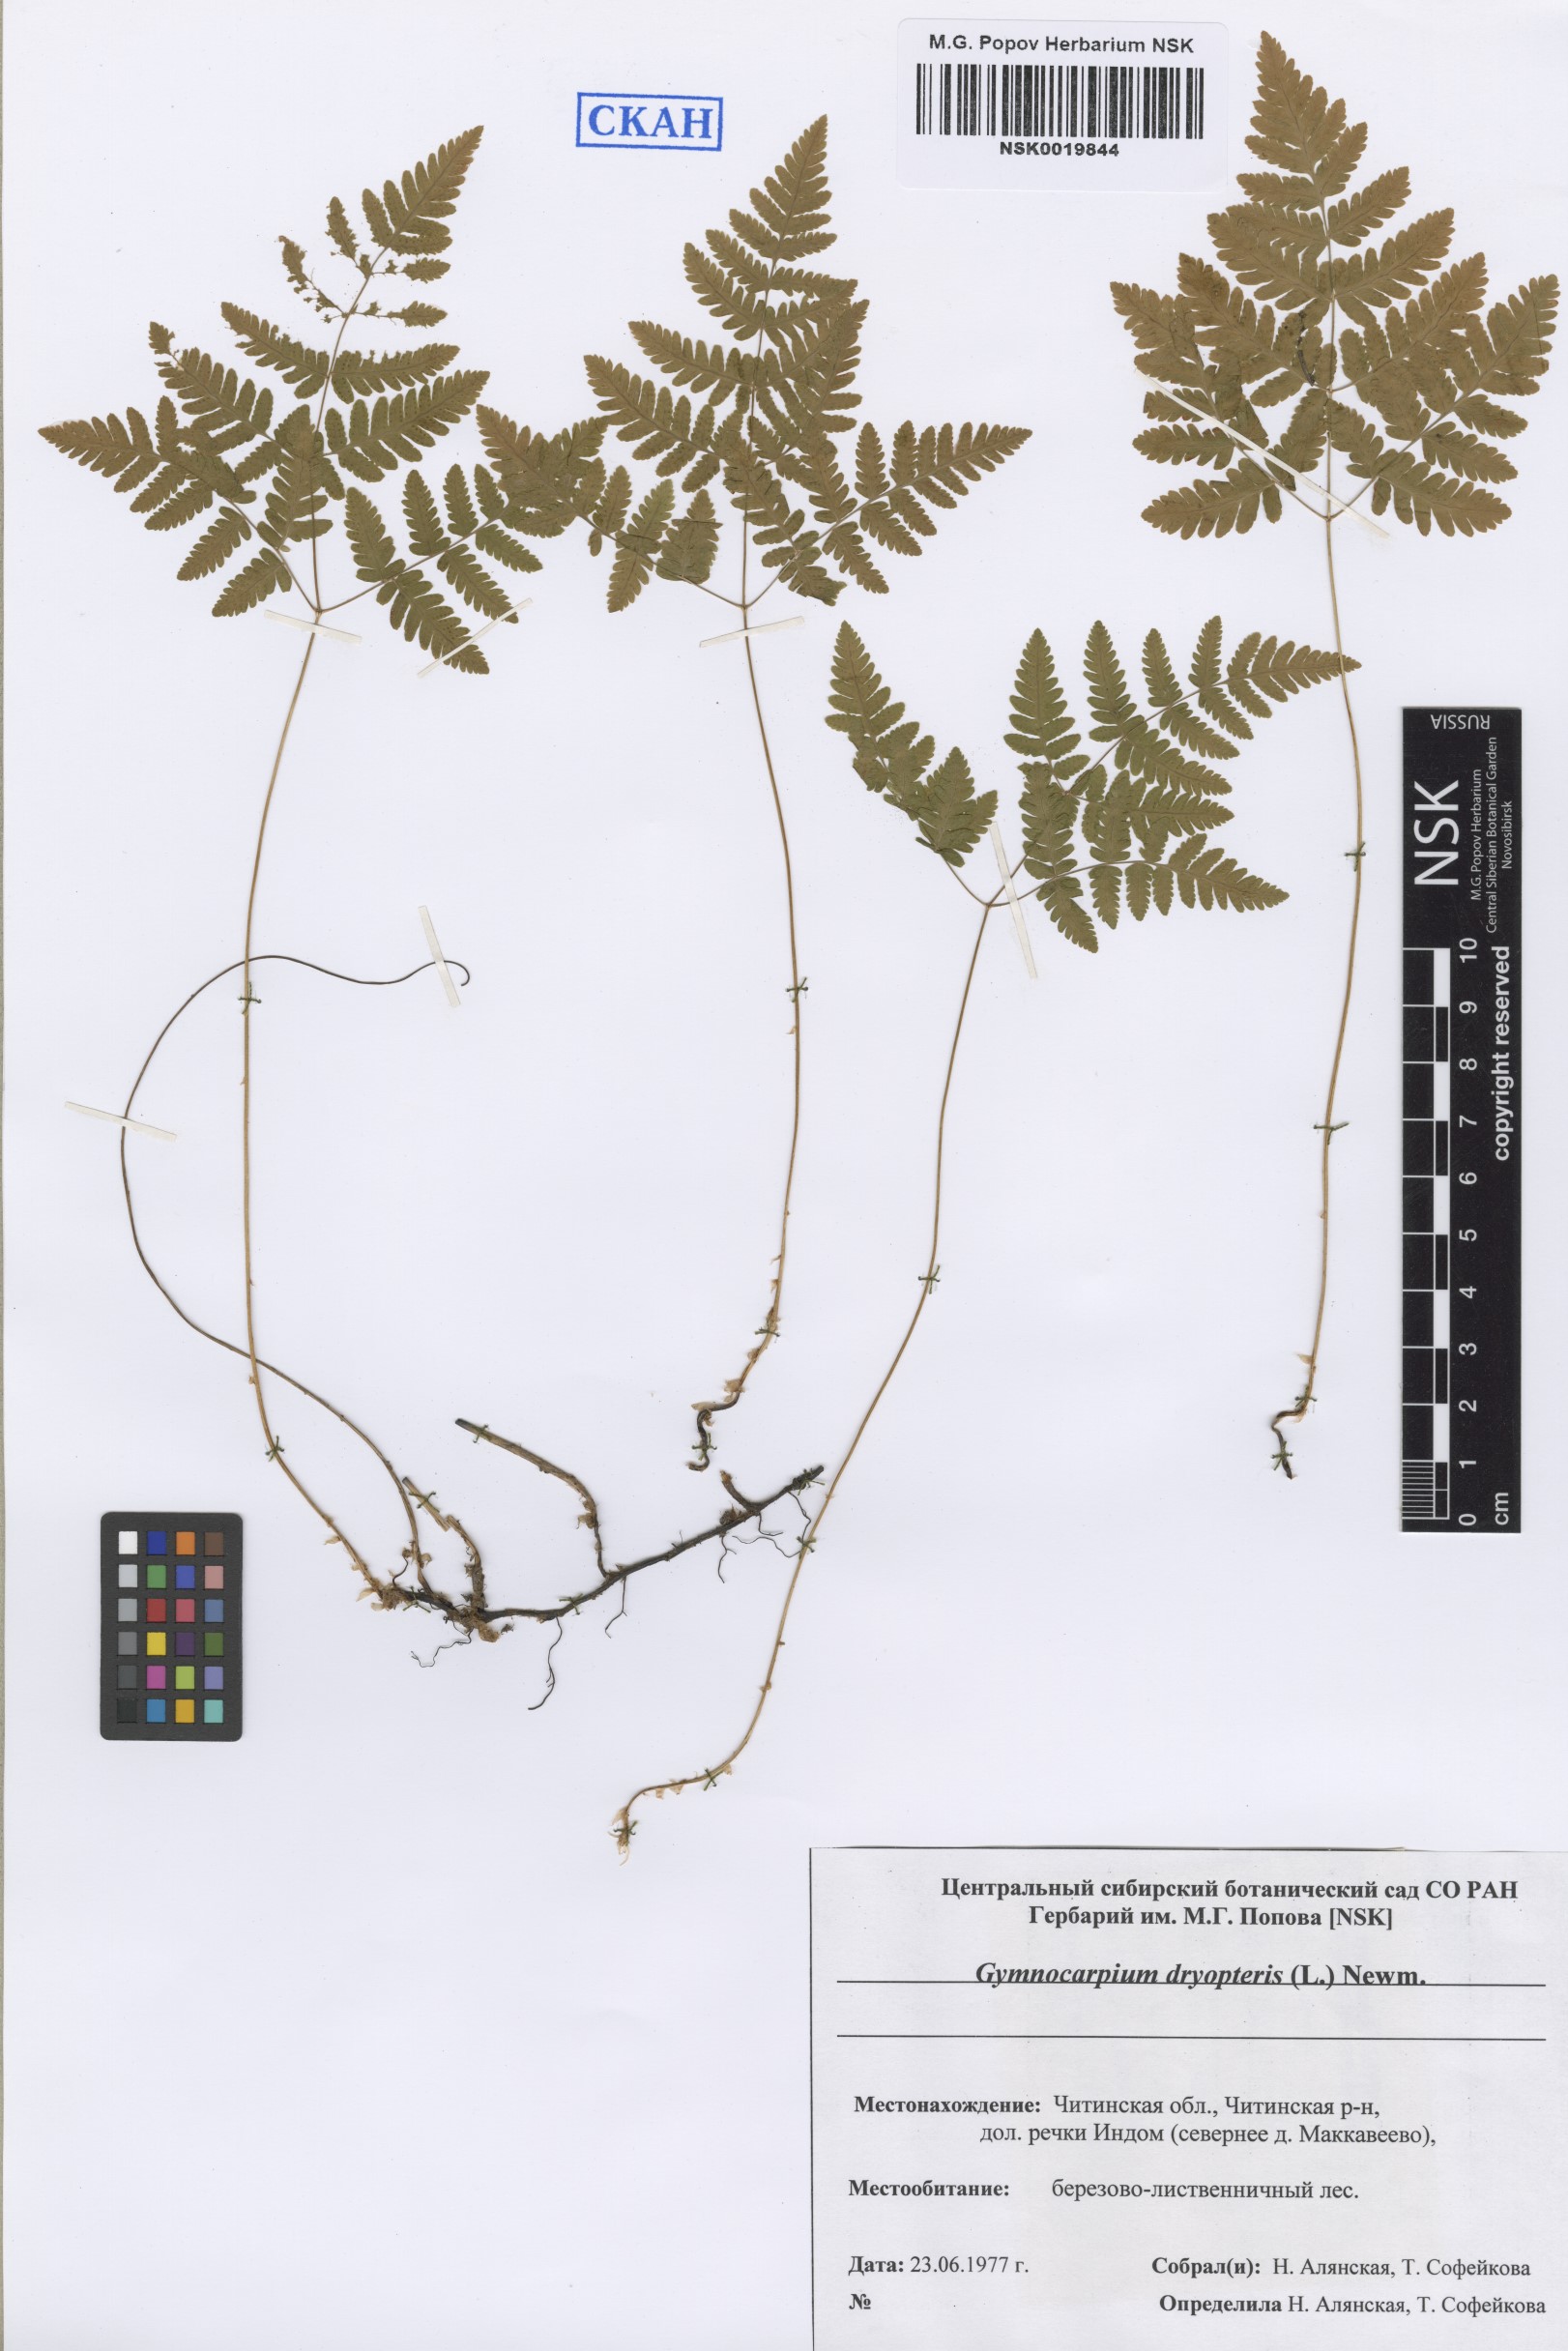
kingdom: Plantae
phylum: Tracheophyta
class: Polypodiopsida
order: Polypodiales
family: Cystopteridaceae
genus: Gymnocarpium
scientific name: Gymnocarpium dryopteris
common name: Oak fern
